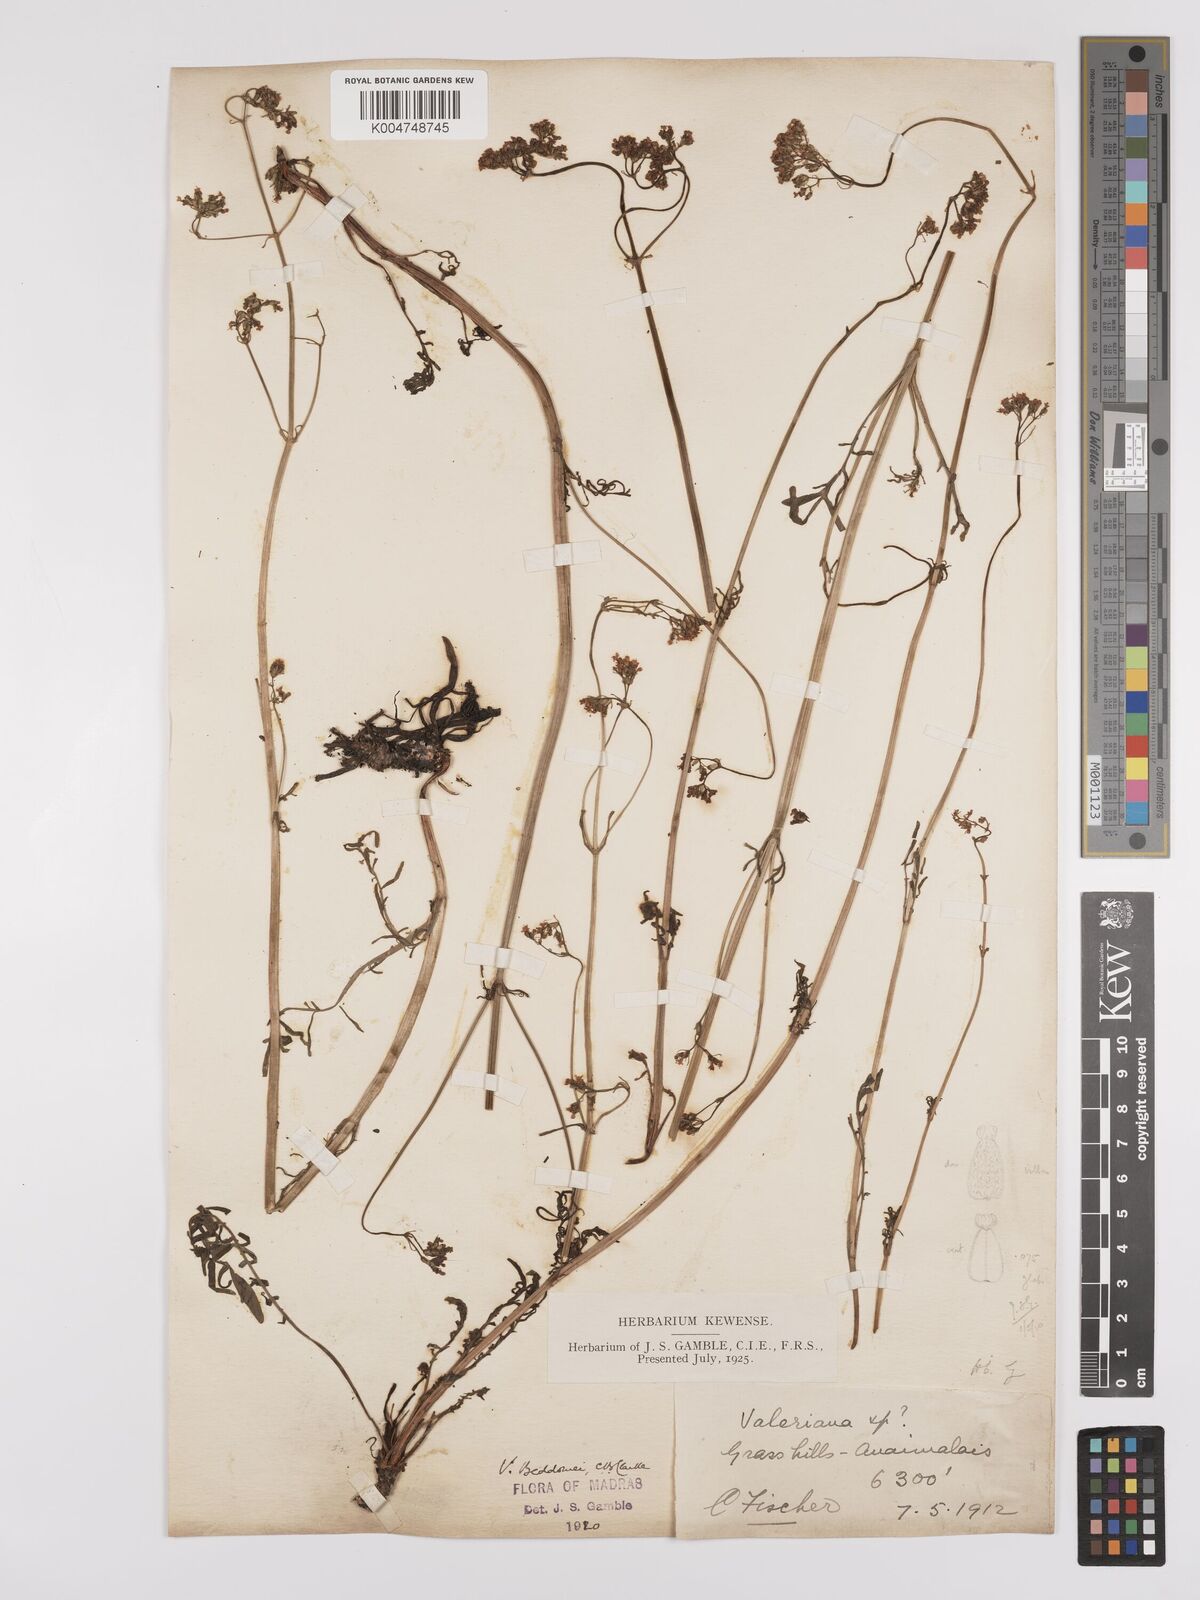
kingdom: Plantae
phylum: Tracheophyta
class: Magnoliopsida
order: Dipsacales
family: Caprifoliaceae
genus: Valeriana
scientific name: Valeriana beddomei
